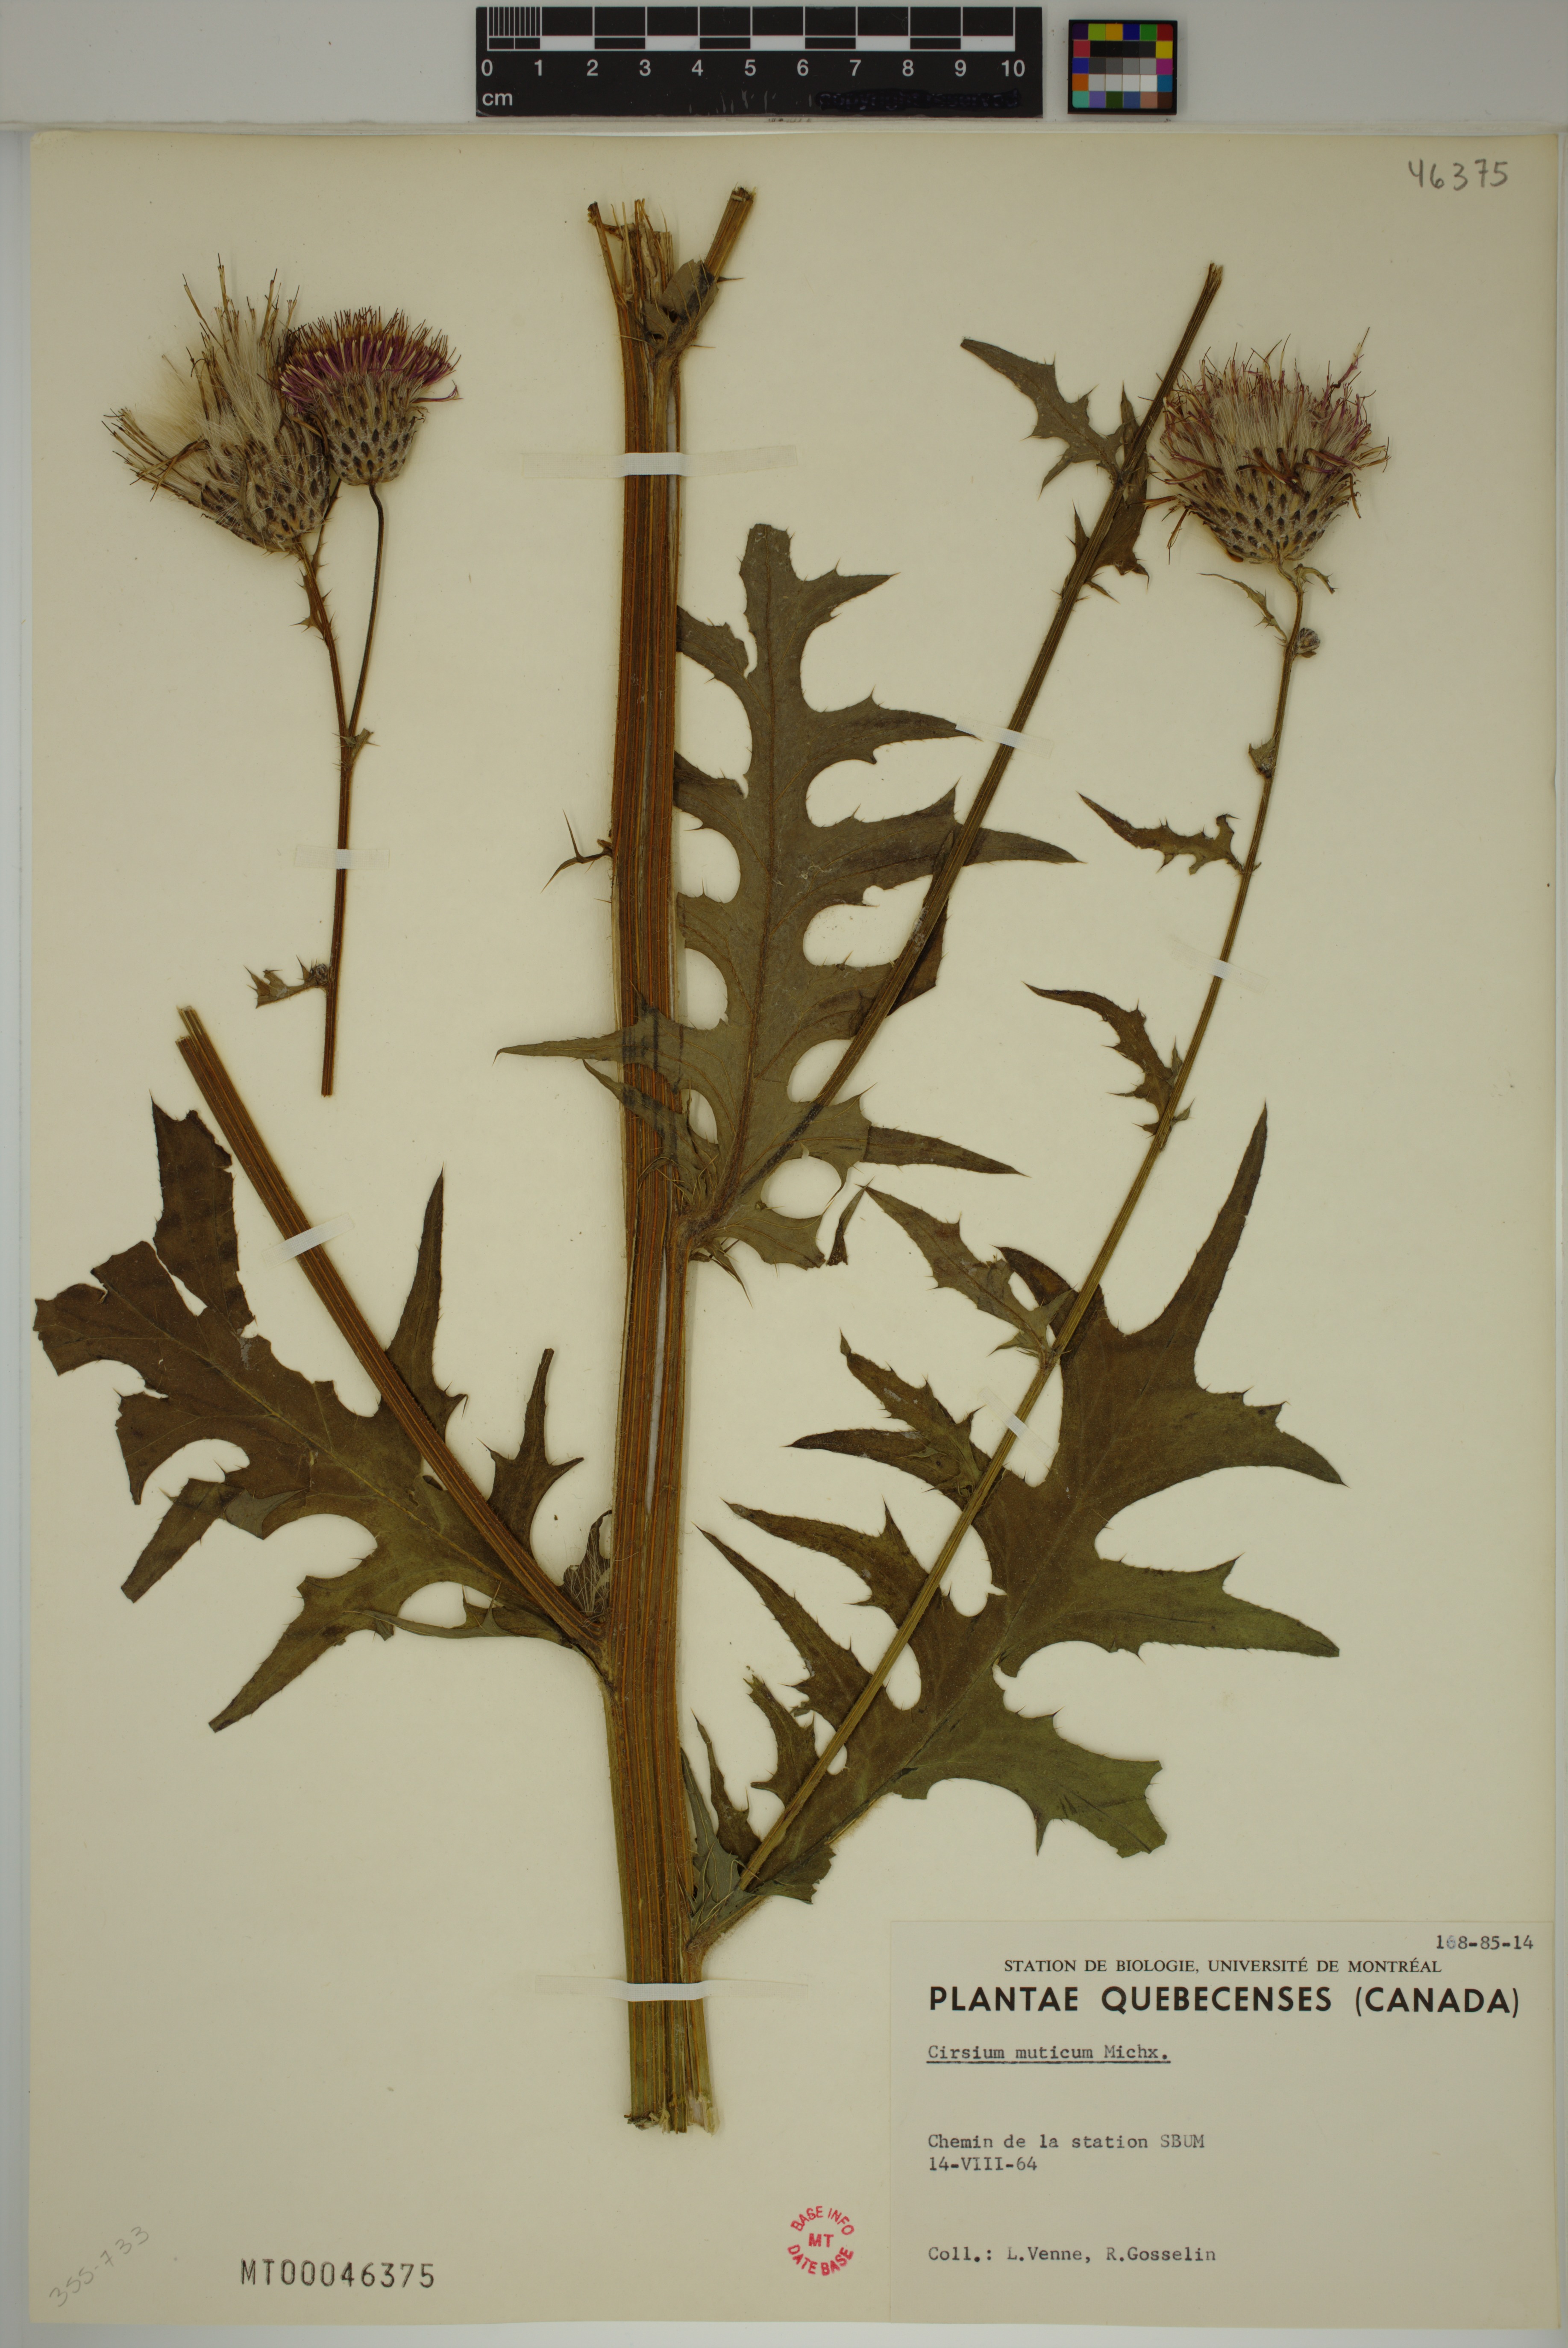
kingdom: Plantae
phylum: Tracheophyta
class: Magnoliopsida
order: Asterales
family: Asteraceae
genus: Cirsium
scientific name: Cirsium muticum
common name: Dunce-nettle
